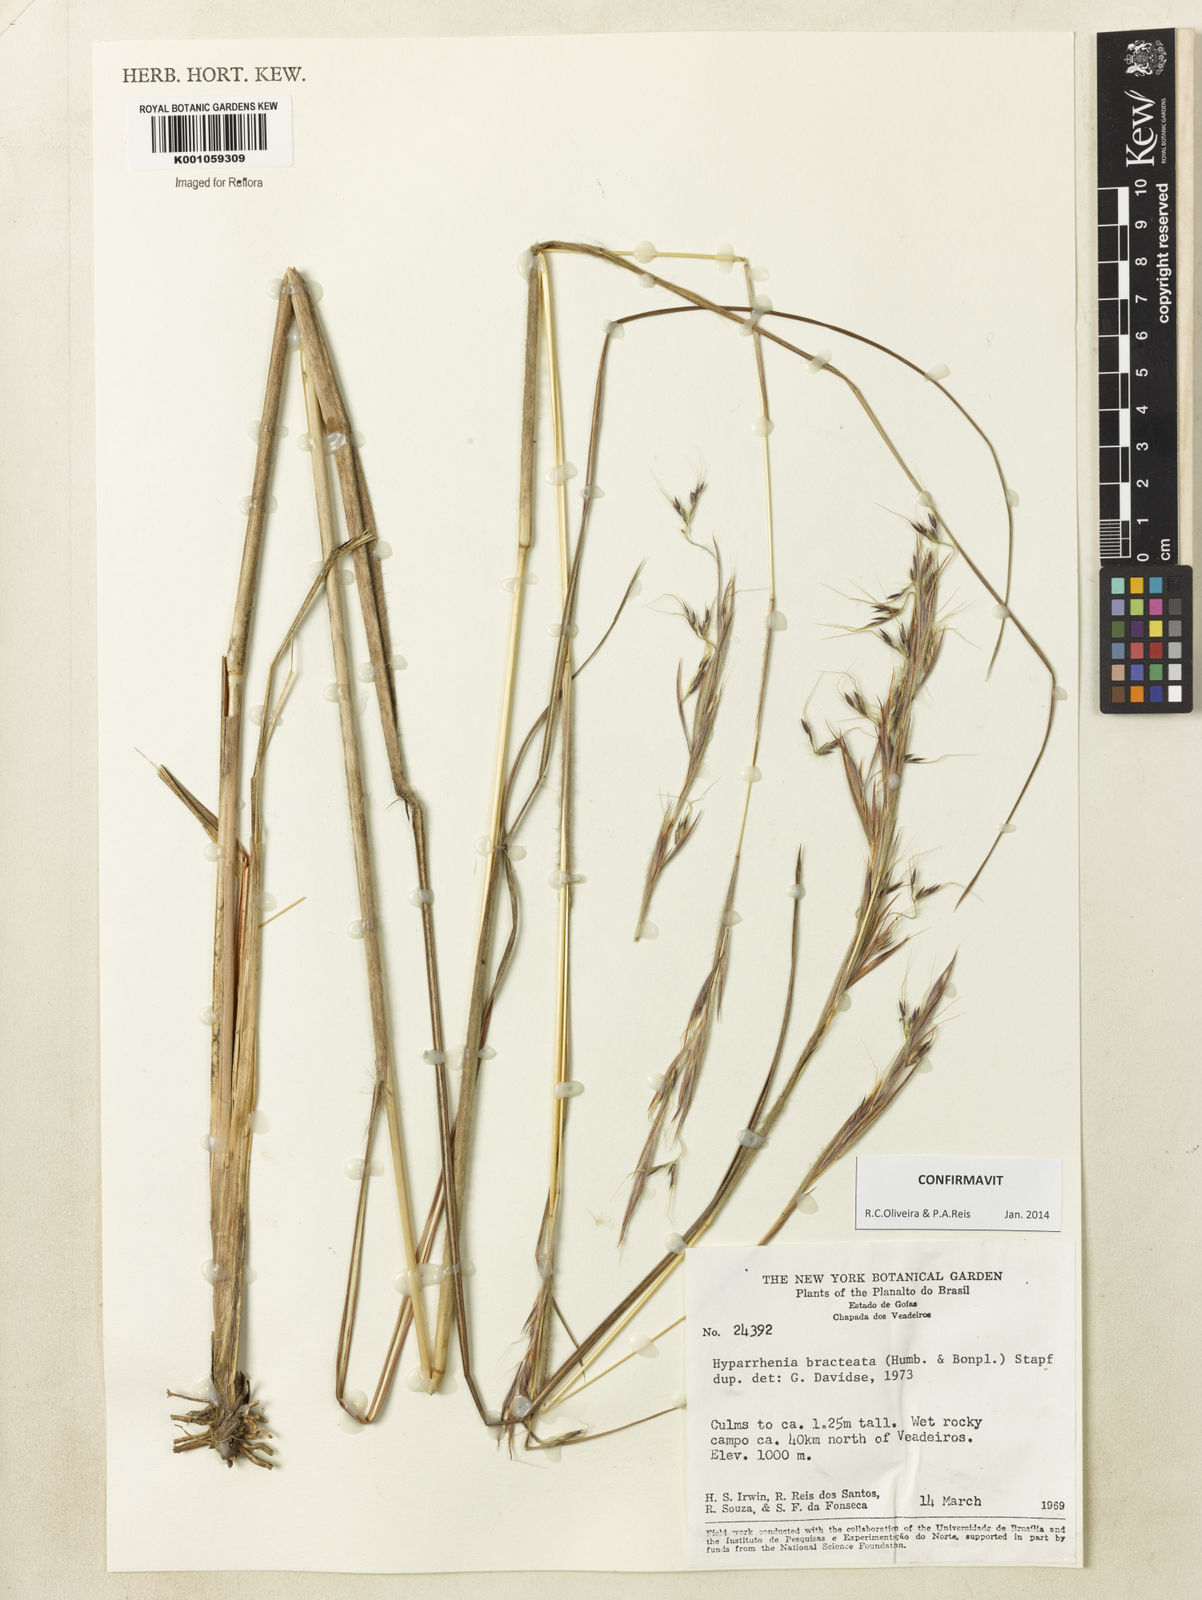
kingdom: Plantae
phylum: Tracheophyta
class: Liliopsida
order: Poales
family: Poaceae
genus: Hyparrhenia
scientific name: Hyparrhenia bracteata
